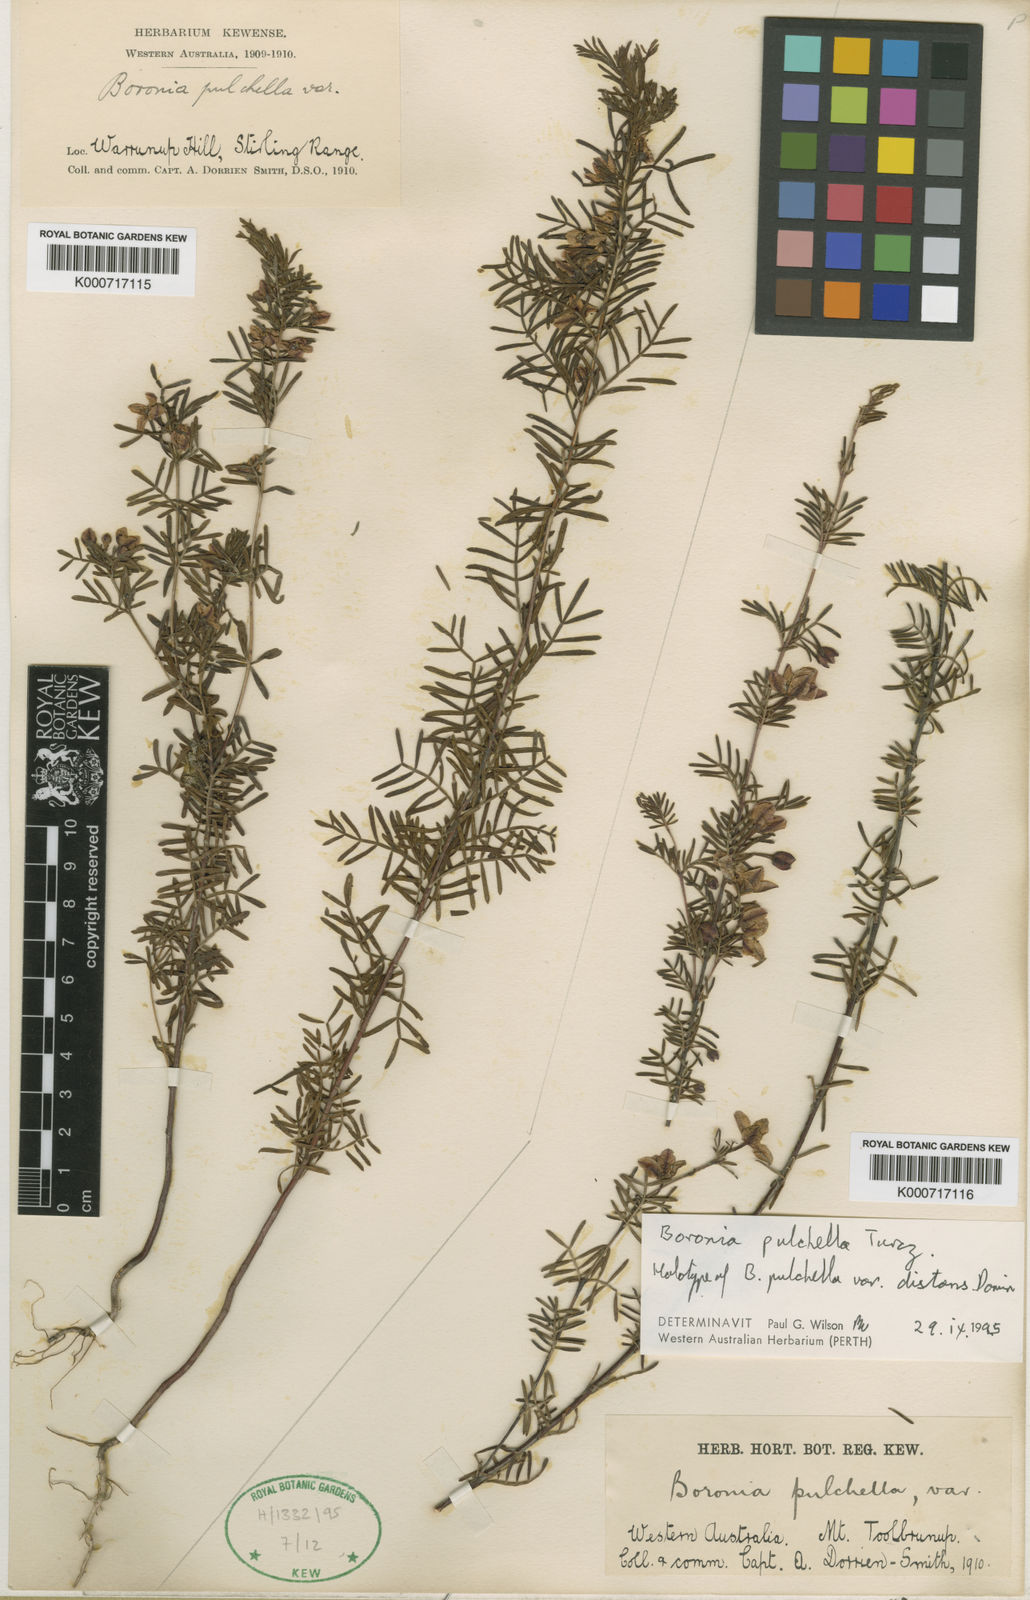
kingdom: Plantae
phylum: Tracheophyta
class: Magnoliopsida
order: Sapindales
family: Rutaceae
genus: Boronia
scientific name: Boronia pulchella
